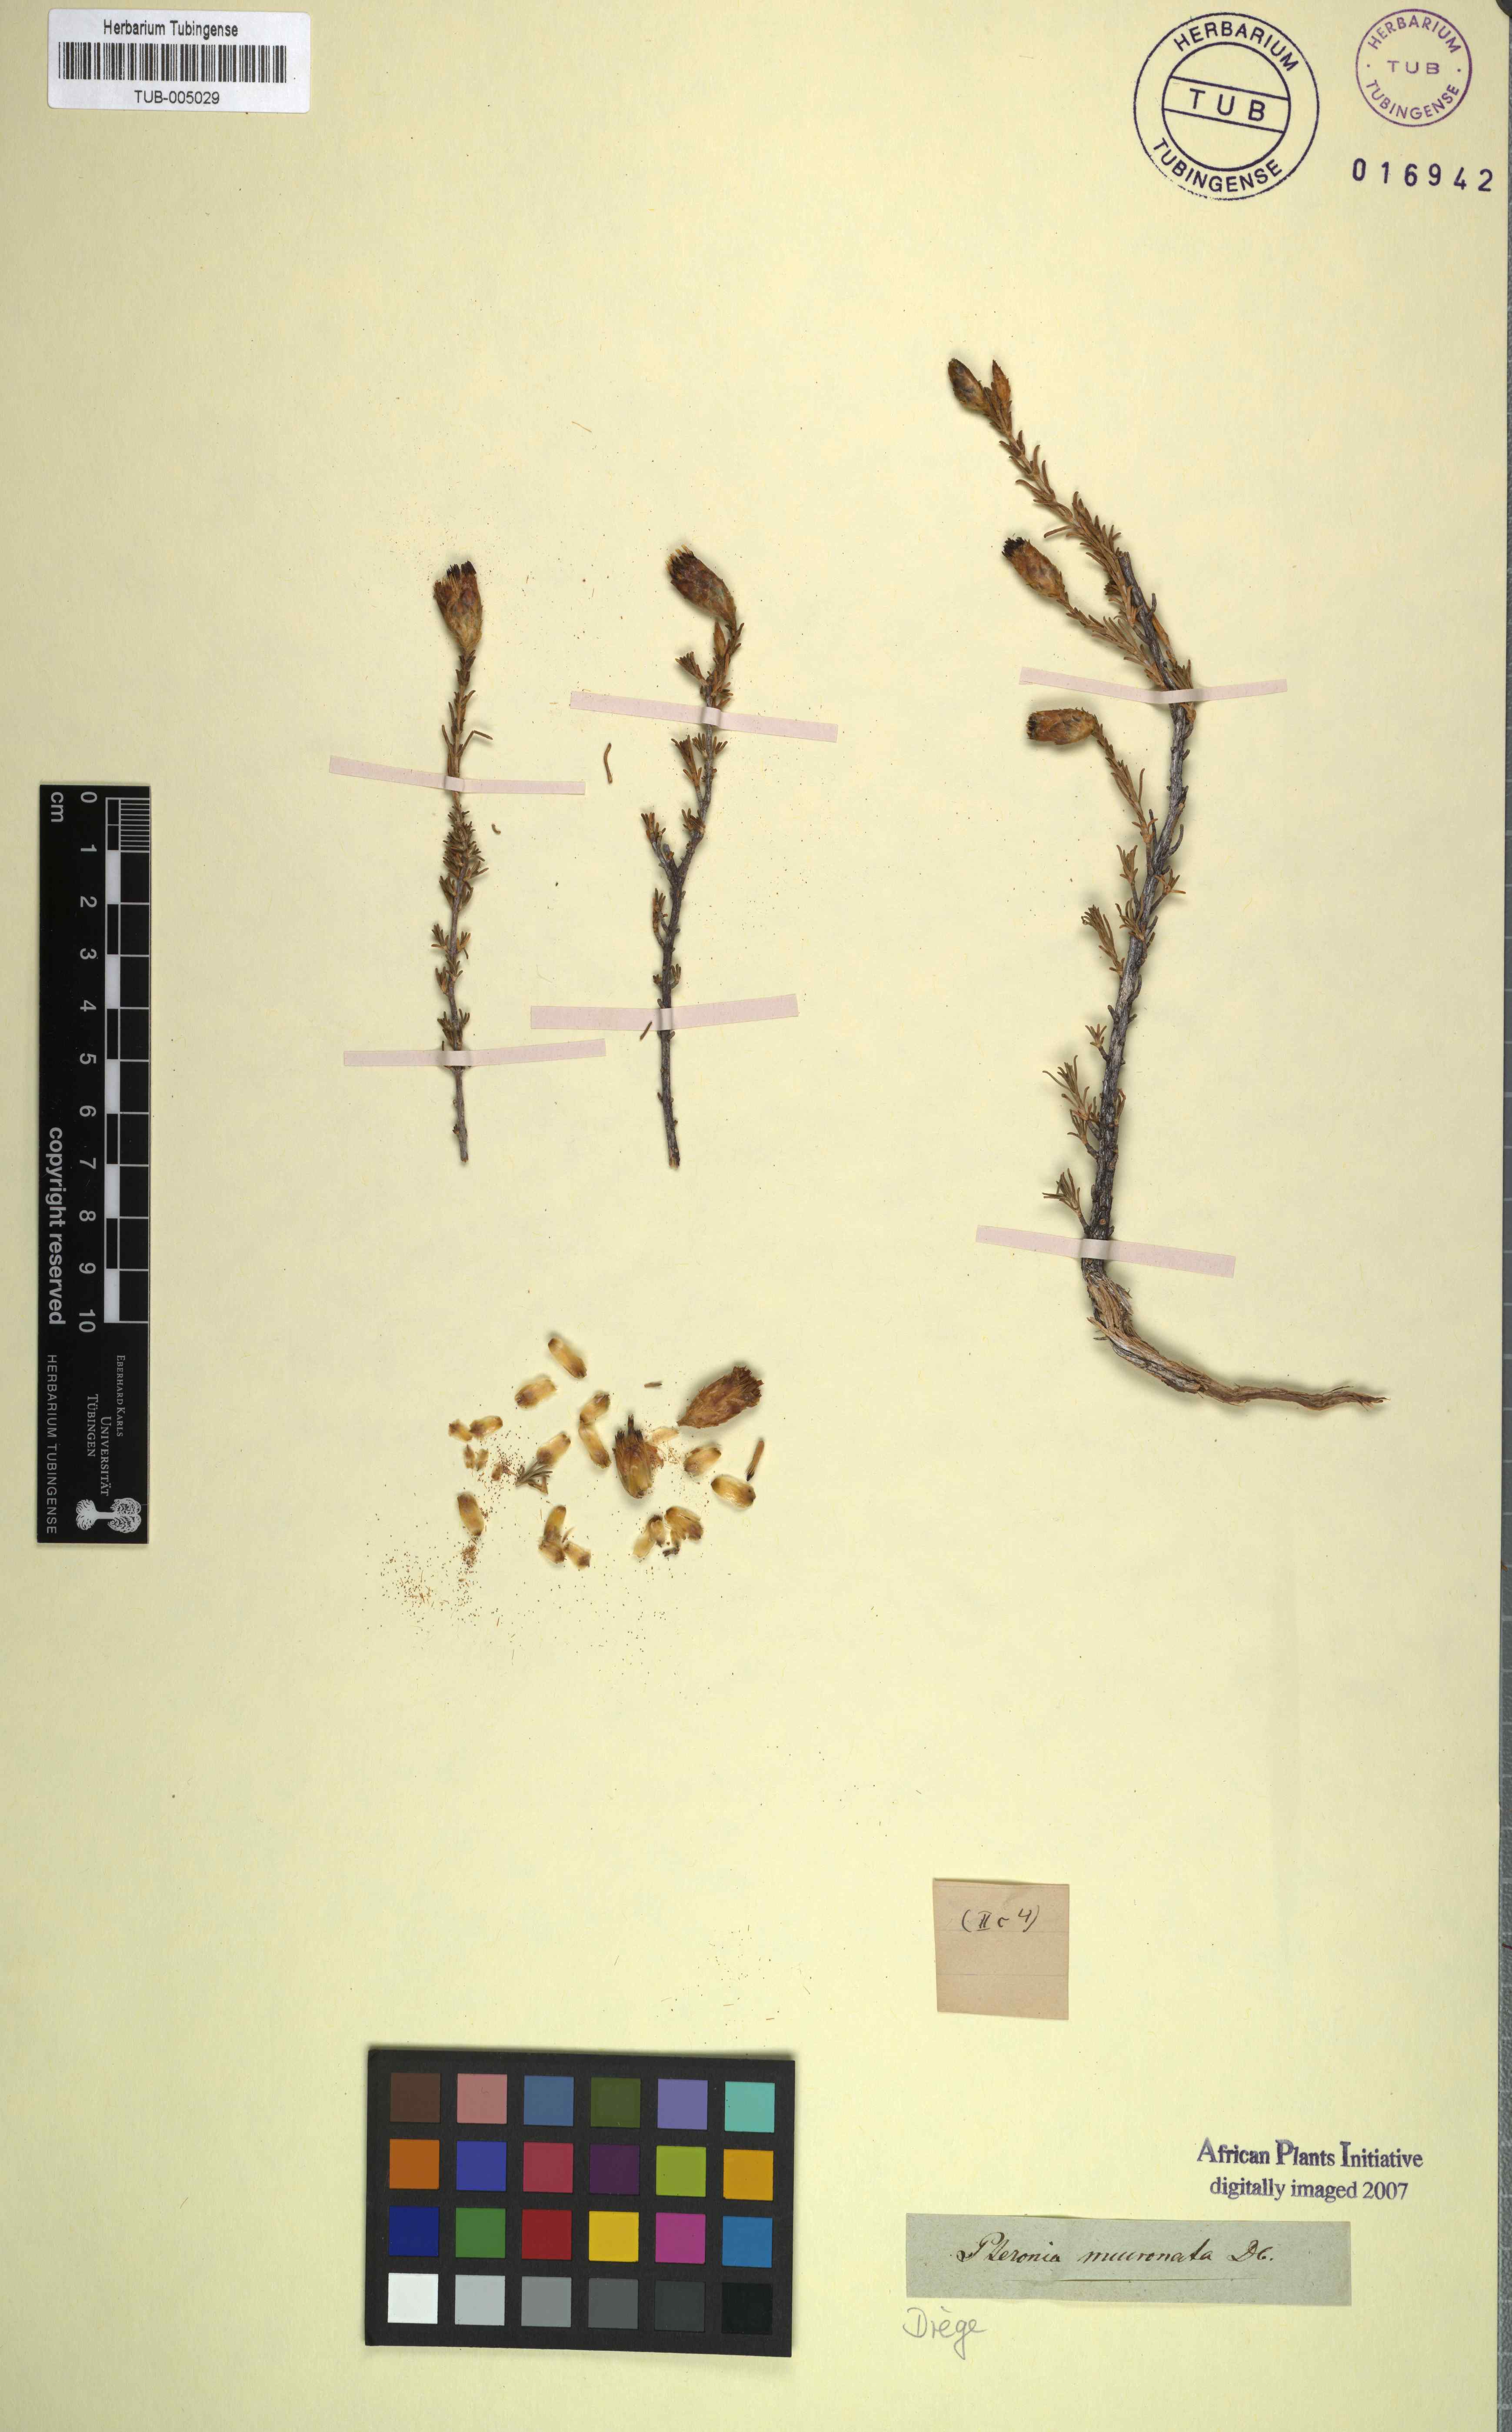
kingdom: Plantae
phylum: Tracheophyta
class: Magnoliopsida
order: Asterales
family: Asteraceae
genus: Pteronia
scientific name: Pteronia mucronata
